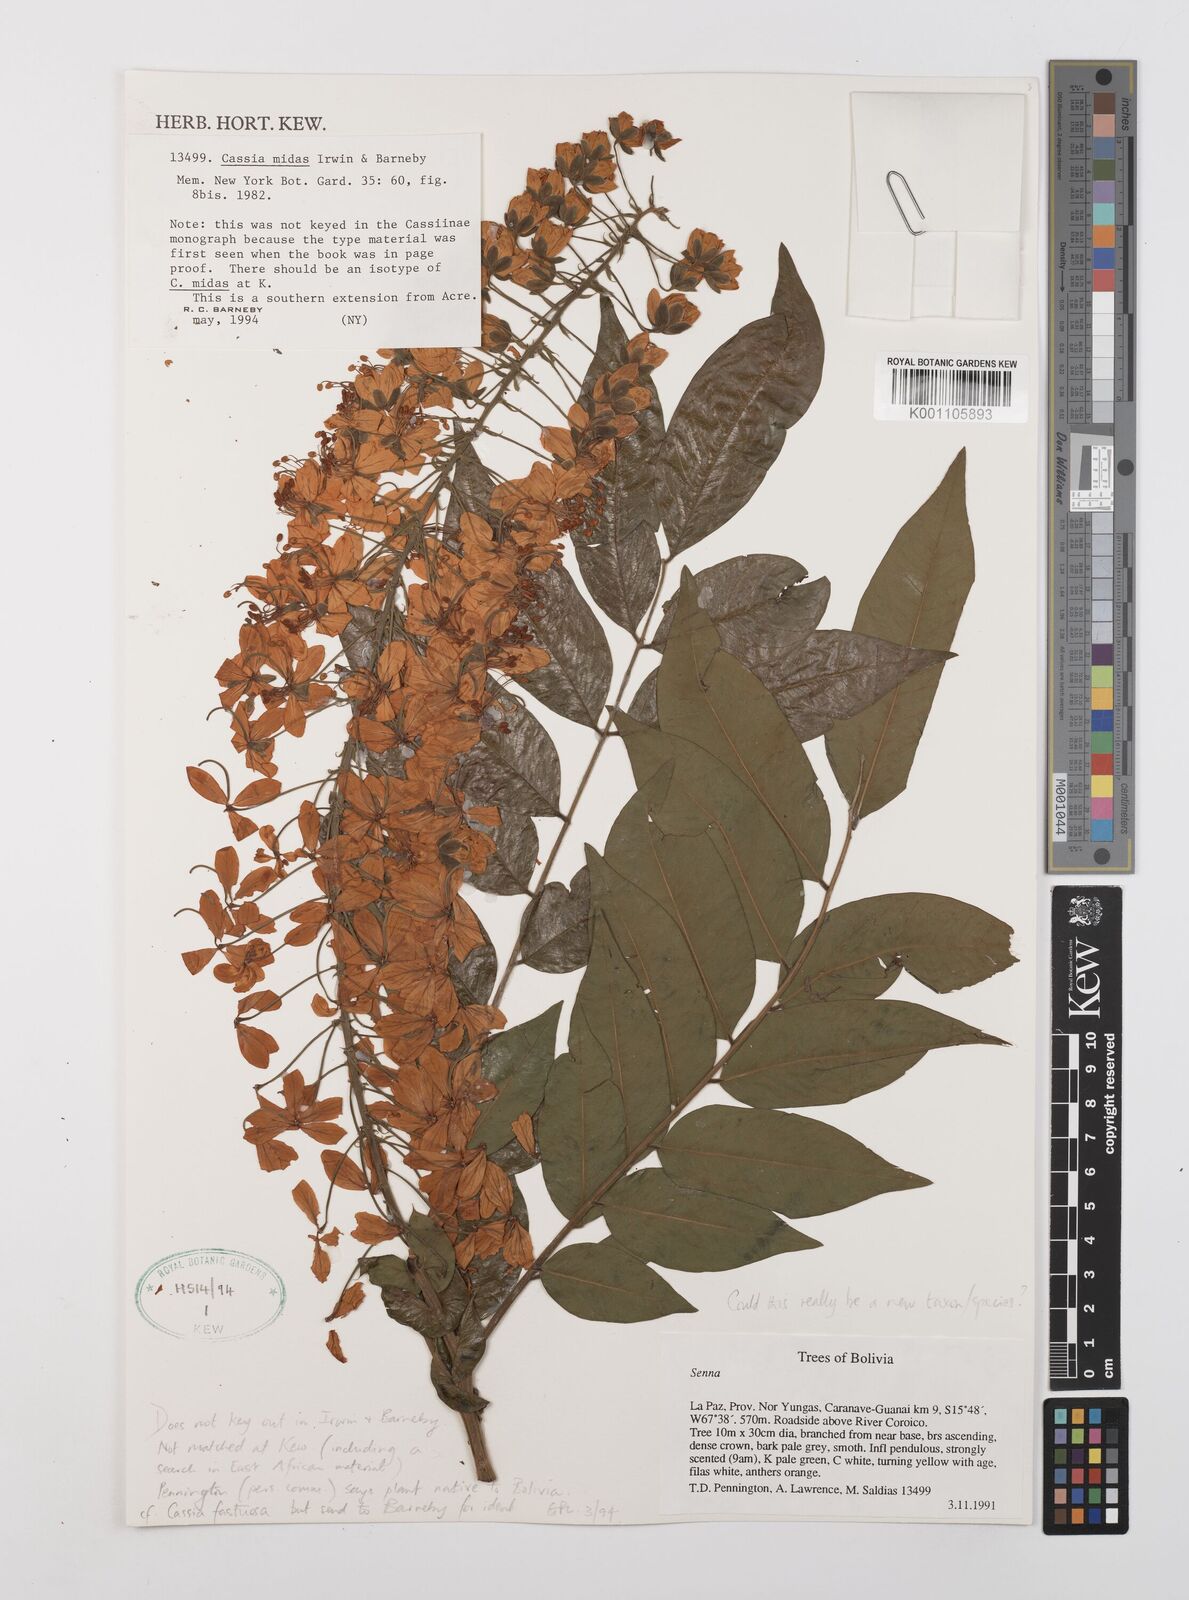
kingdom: Plantae
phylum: Tracheophyta
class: Magnoliopsida
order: Fabales
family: Fabaceae
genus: Cassia
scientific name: Cassia midas
